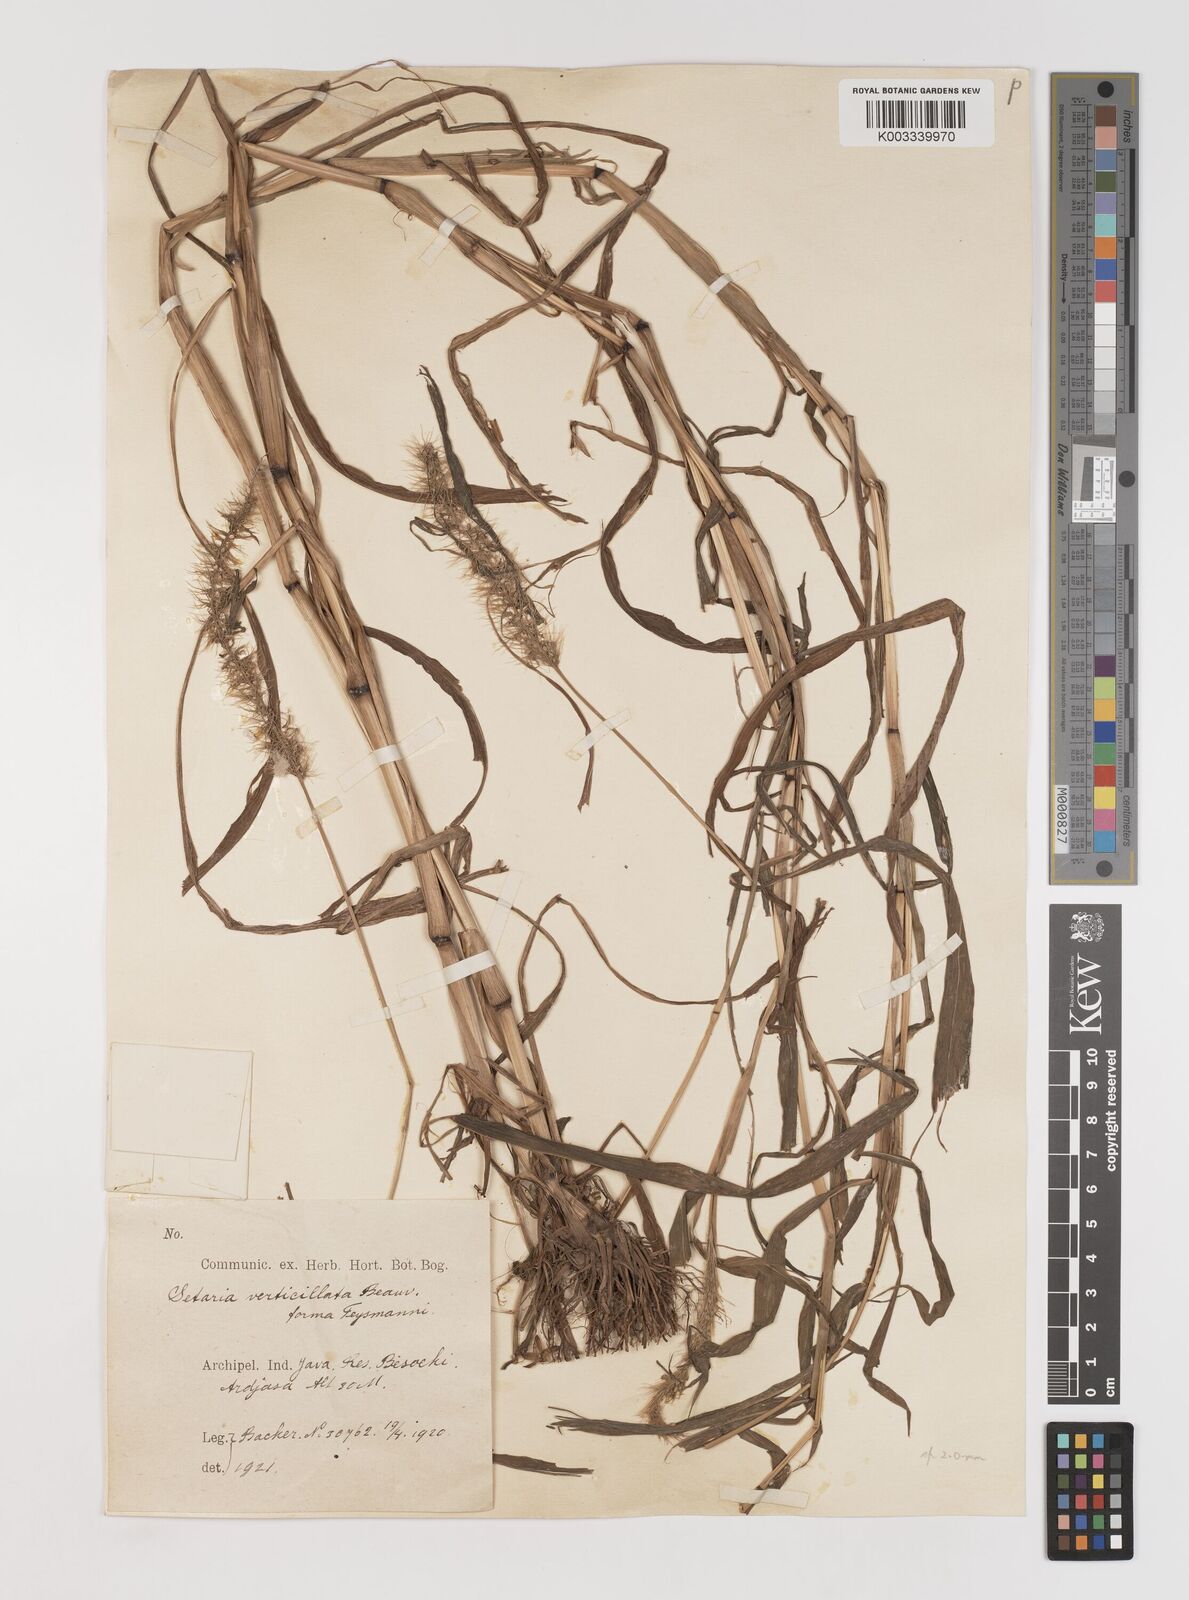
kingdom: Plantae
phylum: Tracheophyta
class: Liliopsida
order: Poales
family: Poaceae
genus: Setaria
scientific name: Setaria verticillata
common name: Hooked bristlegrass
